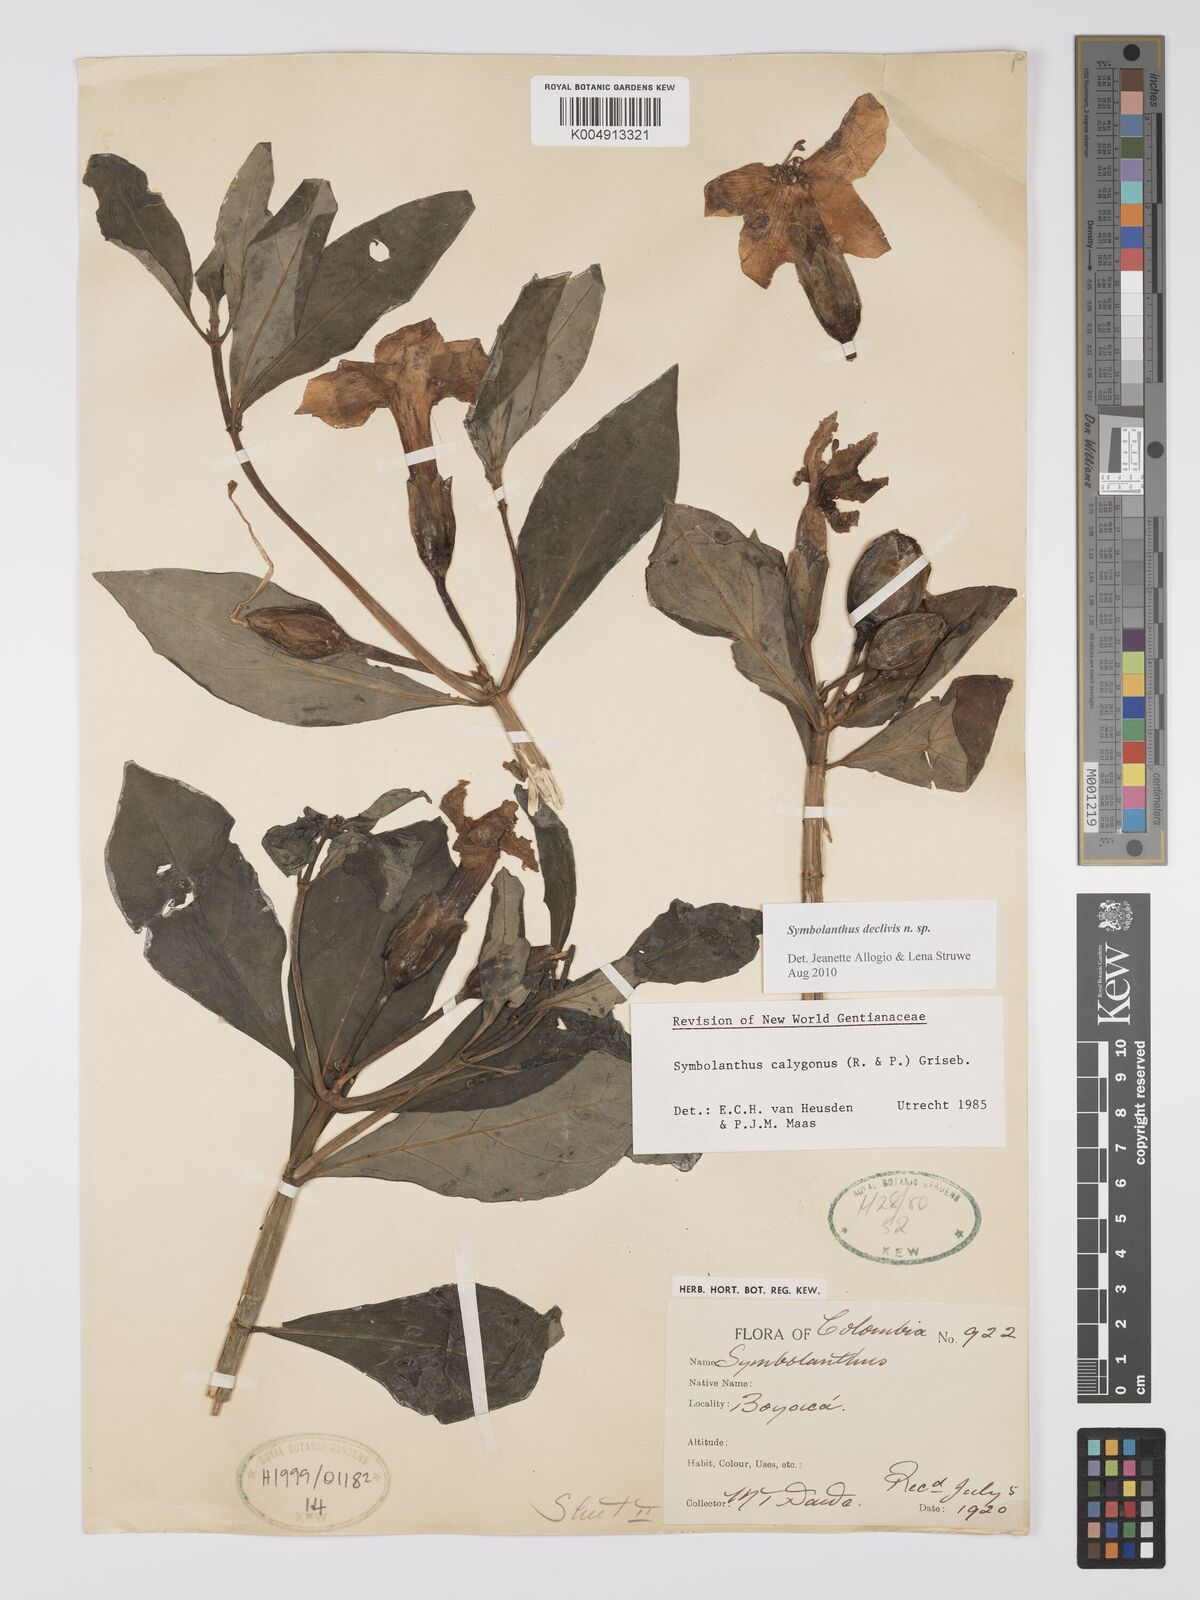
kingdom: Plantae
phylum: Tracheophyta
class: Magnoliopsida
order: Gentianales
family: Gentianaceae
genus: Symbolanthus
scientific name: Symbolanthus
